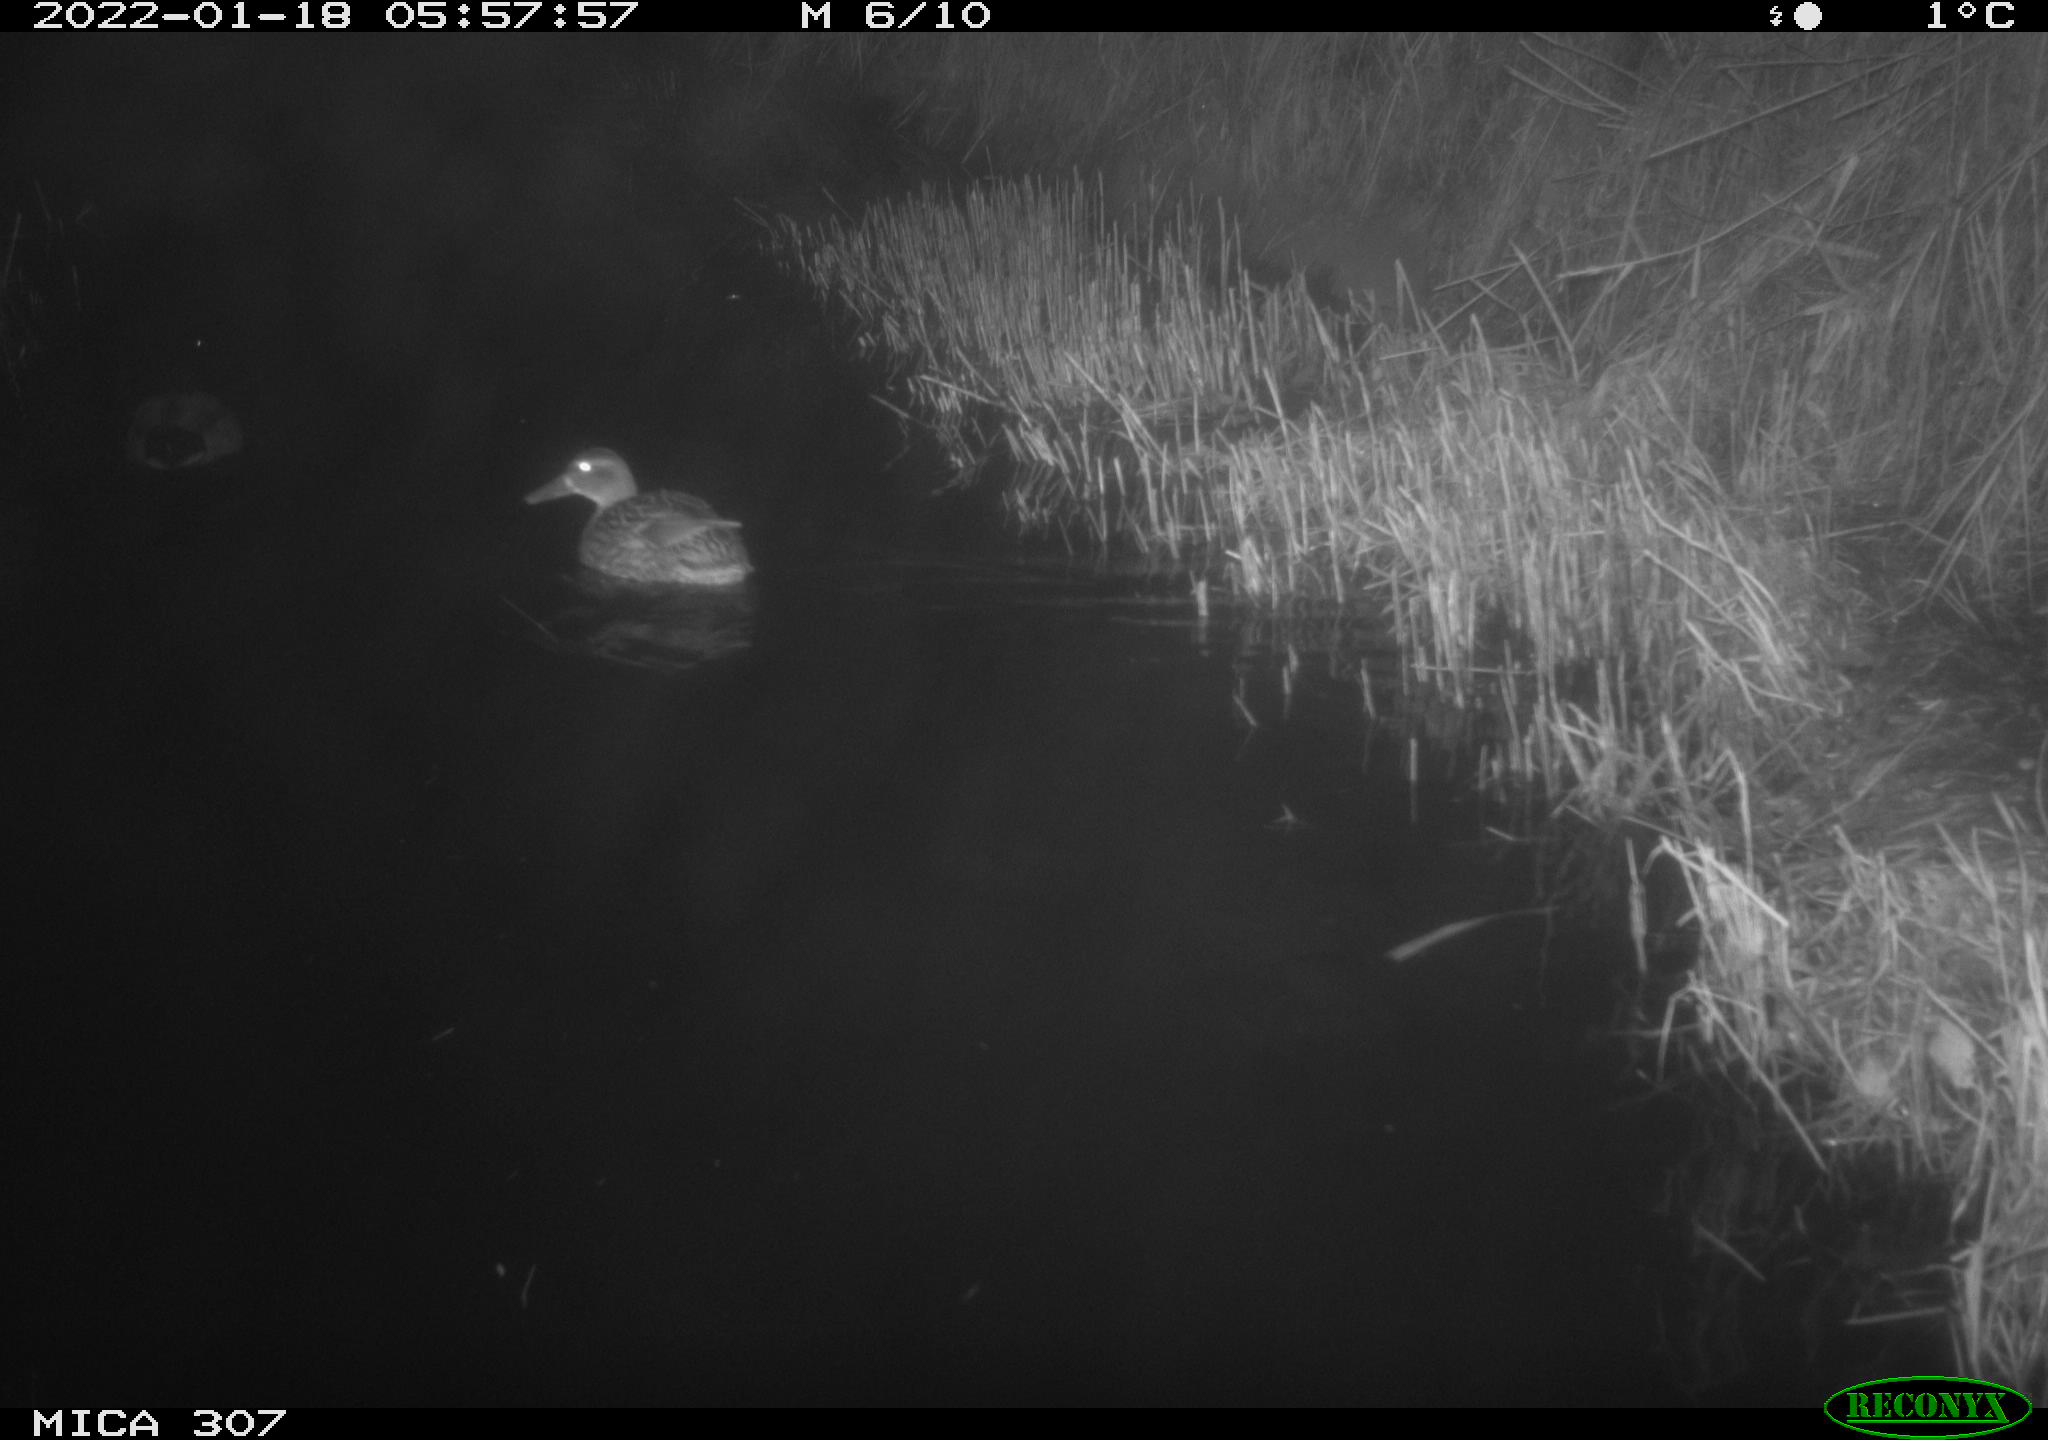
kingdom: Animalia
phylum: Chordata
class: Aves
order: Anseriformes
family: Anatidae
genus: Anas
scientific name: Anas
